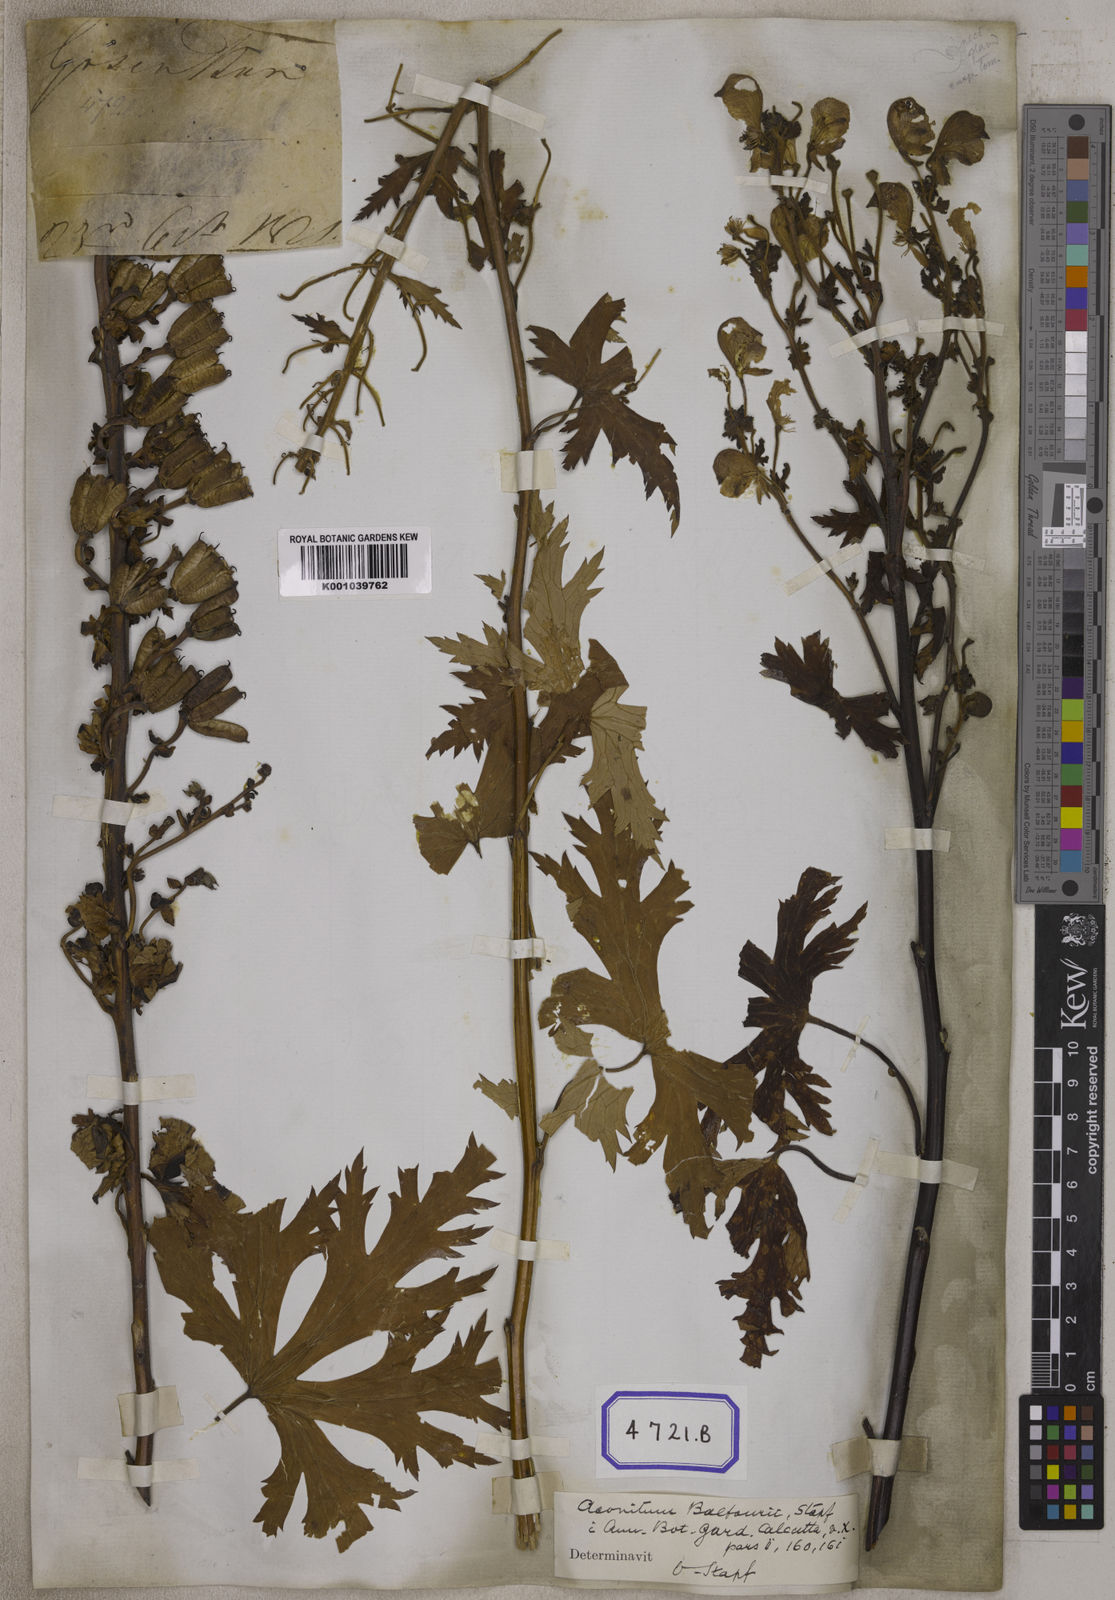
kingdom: Plantae
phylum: Tracheophyta
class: Magnoliopsida
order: Ranunculales
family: Ranunculaceae
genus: Aconitum
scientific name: Aconitum
